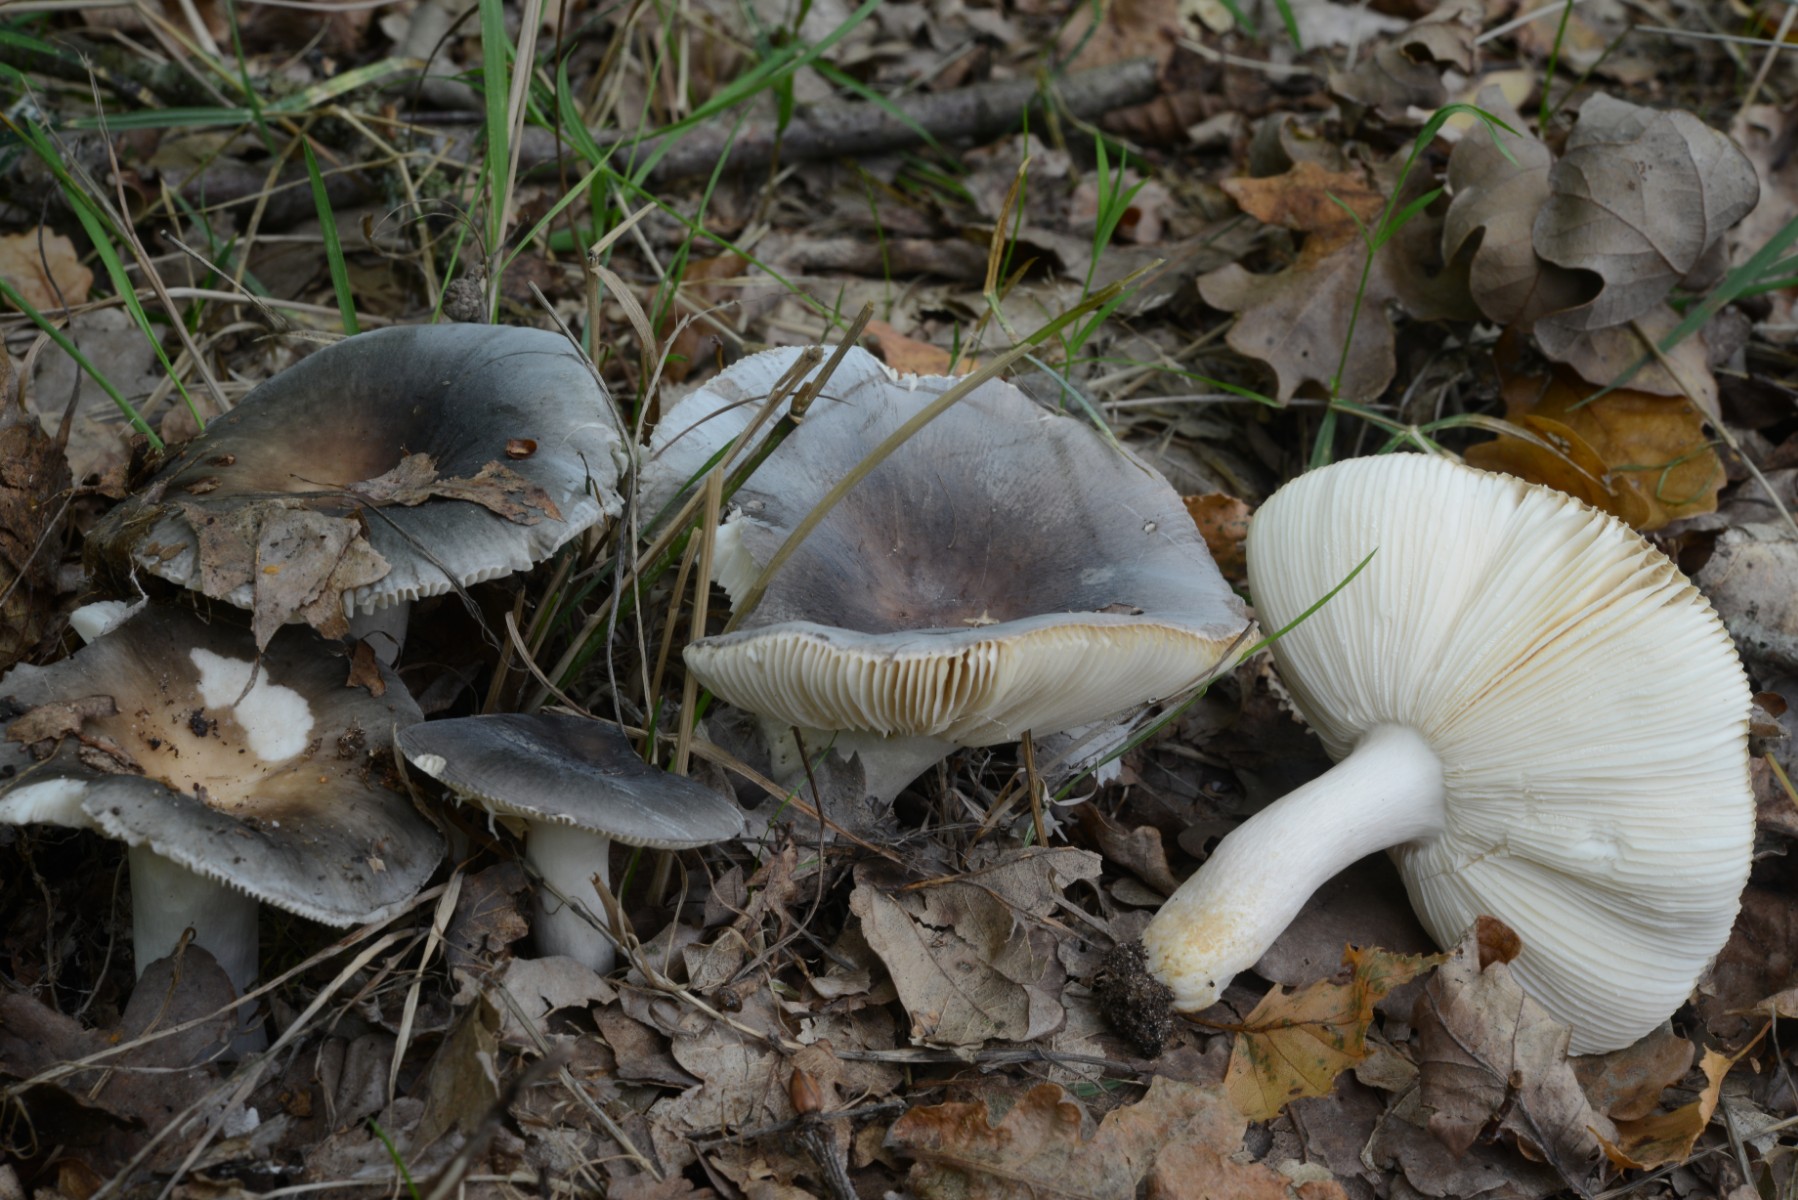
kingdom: Fungi
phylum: Basidiomycota
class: Agaricomycetes
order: Russulales
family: Russulaceae
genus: Russula
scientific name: Russula parazurea
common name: blågrå skørhat
